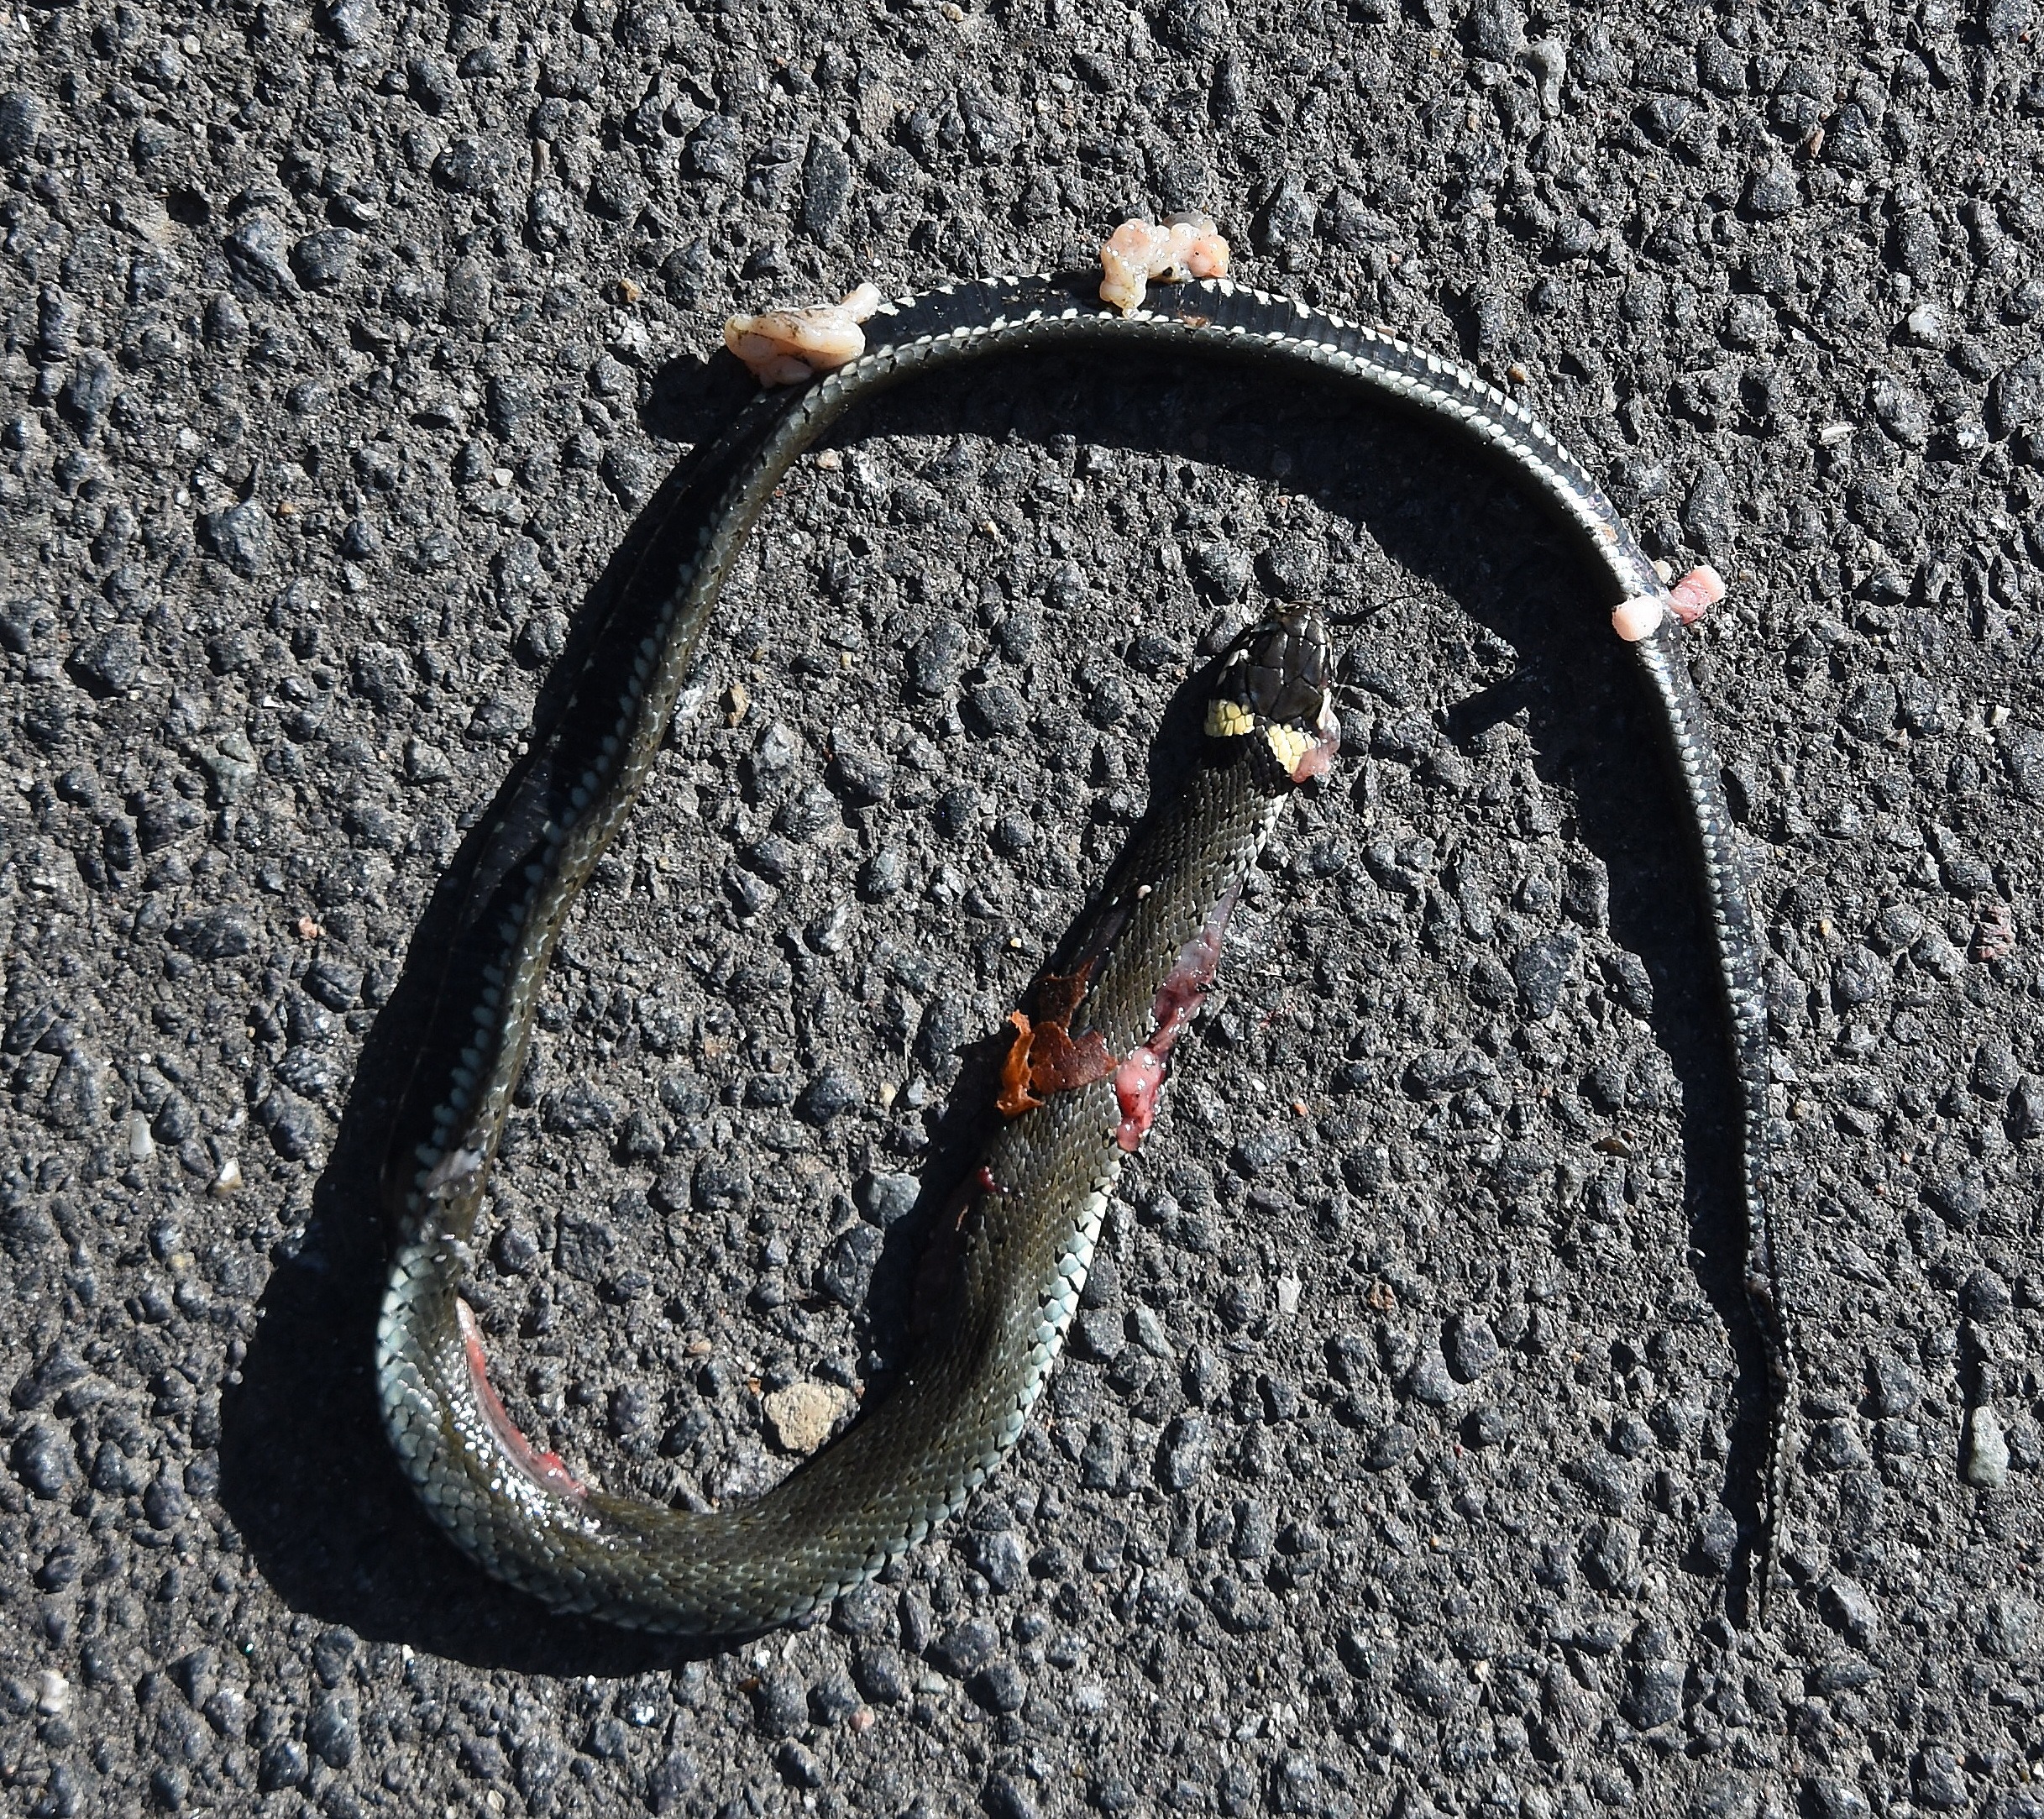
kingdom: Animalia
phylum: Chordata
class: Squamata
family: Colubridae
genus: Natrix
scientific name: Natrix natrix
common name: Snog
